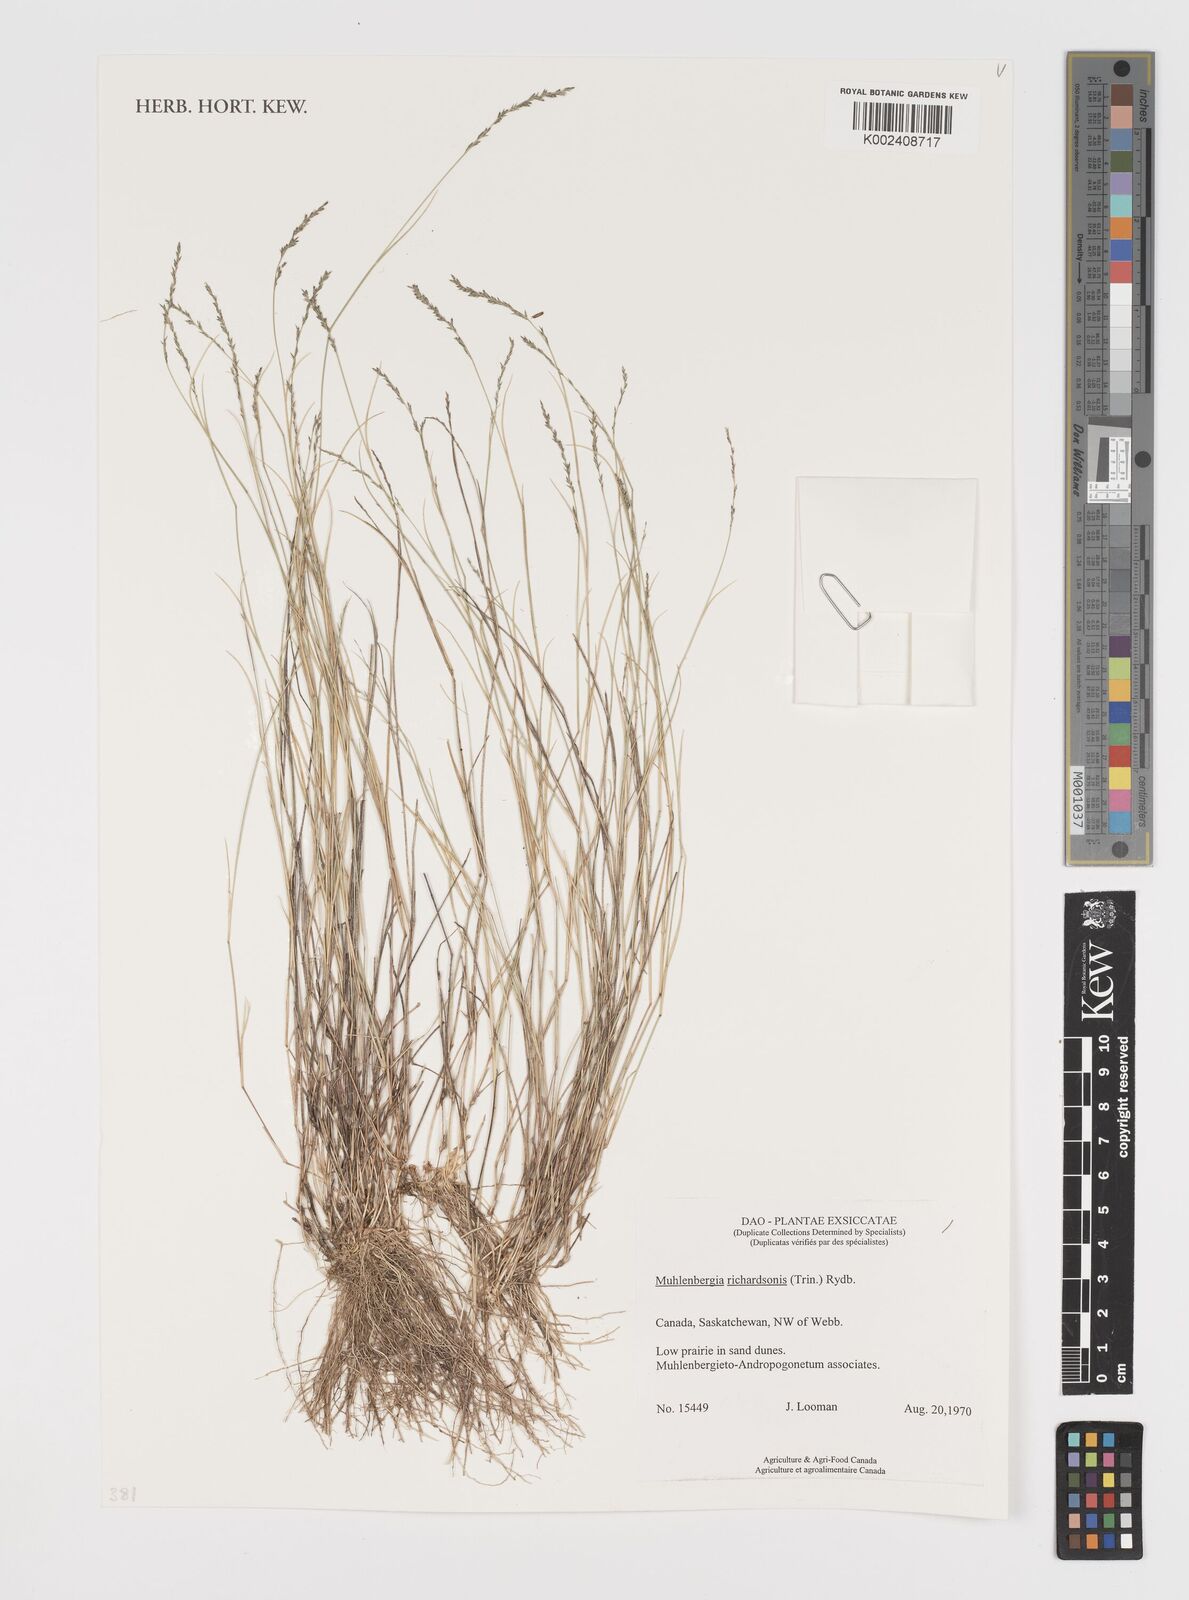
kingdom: Plantae
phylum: Tracheophyta
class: Liliopsida
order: Poales
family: Poaceae
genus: Muhlenbergia
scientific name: Muhlenbergia richardsonis
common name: Mat muhly
